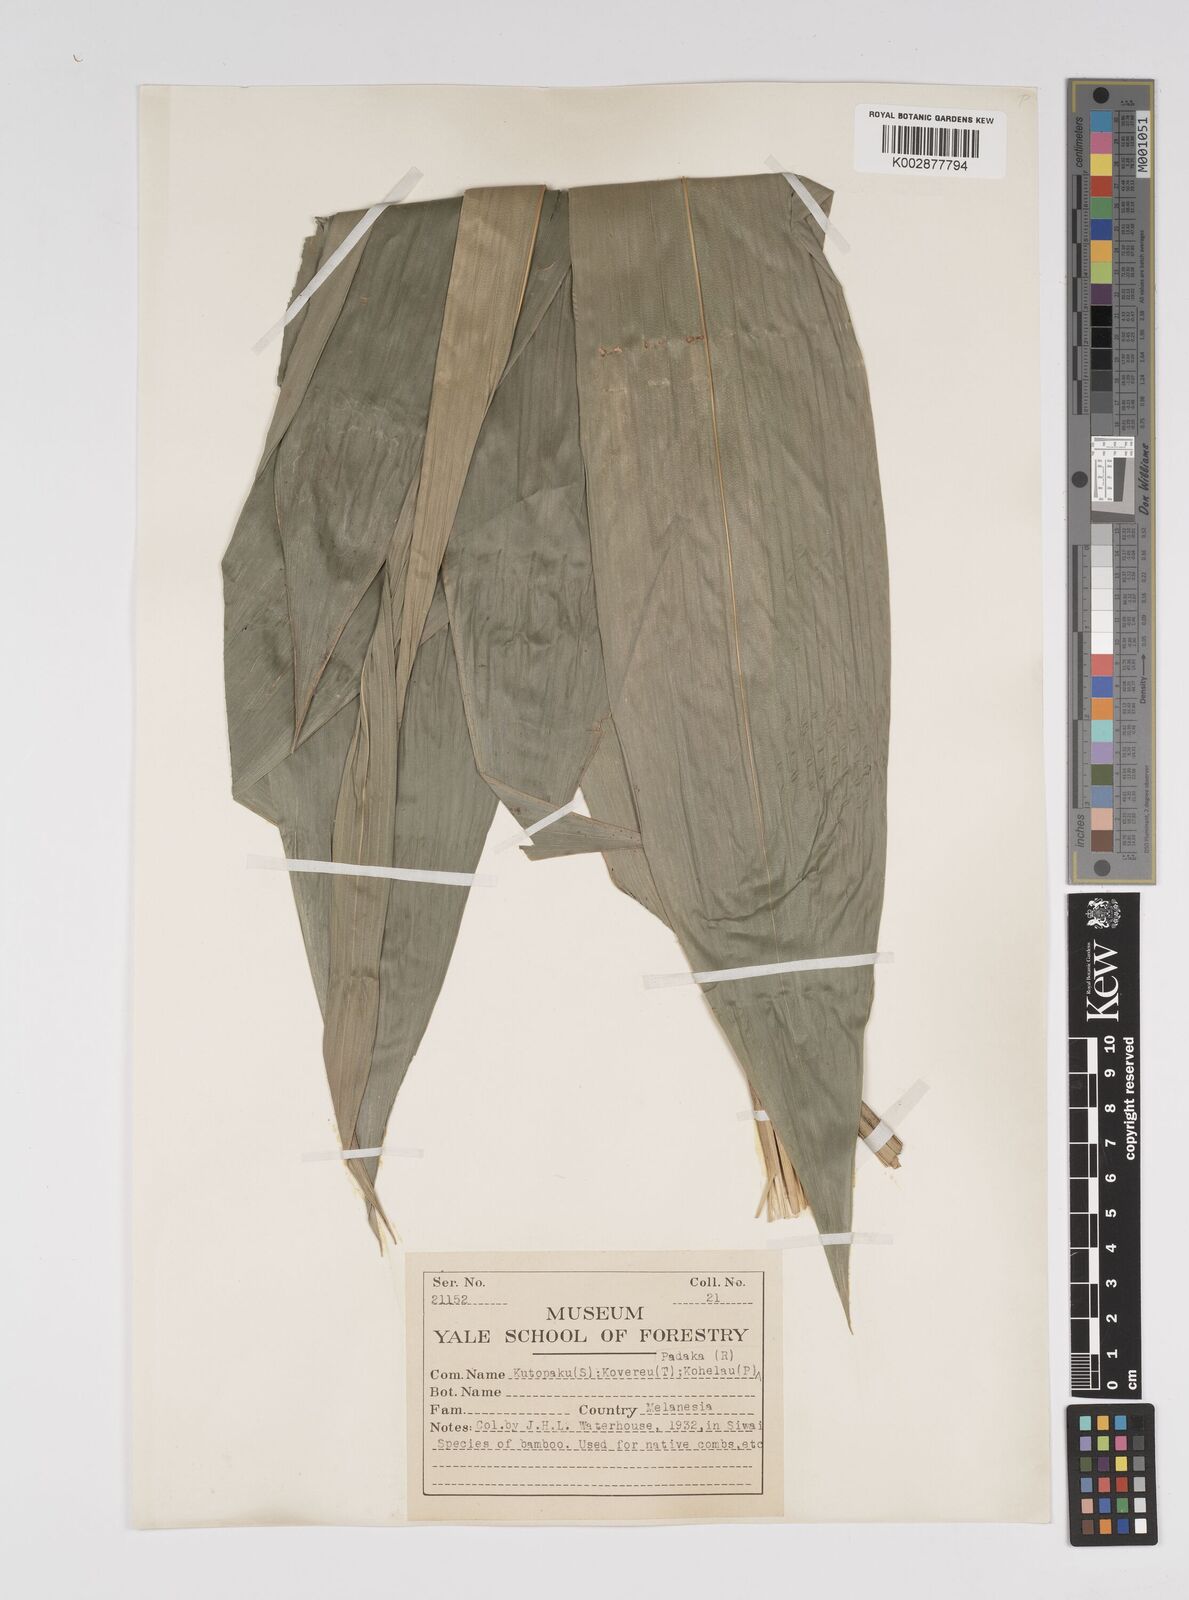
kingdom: Plantae
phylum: Tracheophyta
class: Liliopsida
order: Poales
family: Poaceae
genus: Bambusa
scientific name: Bambusa multiplex
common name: Hedge bamboo
